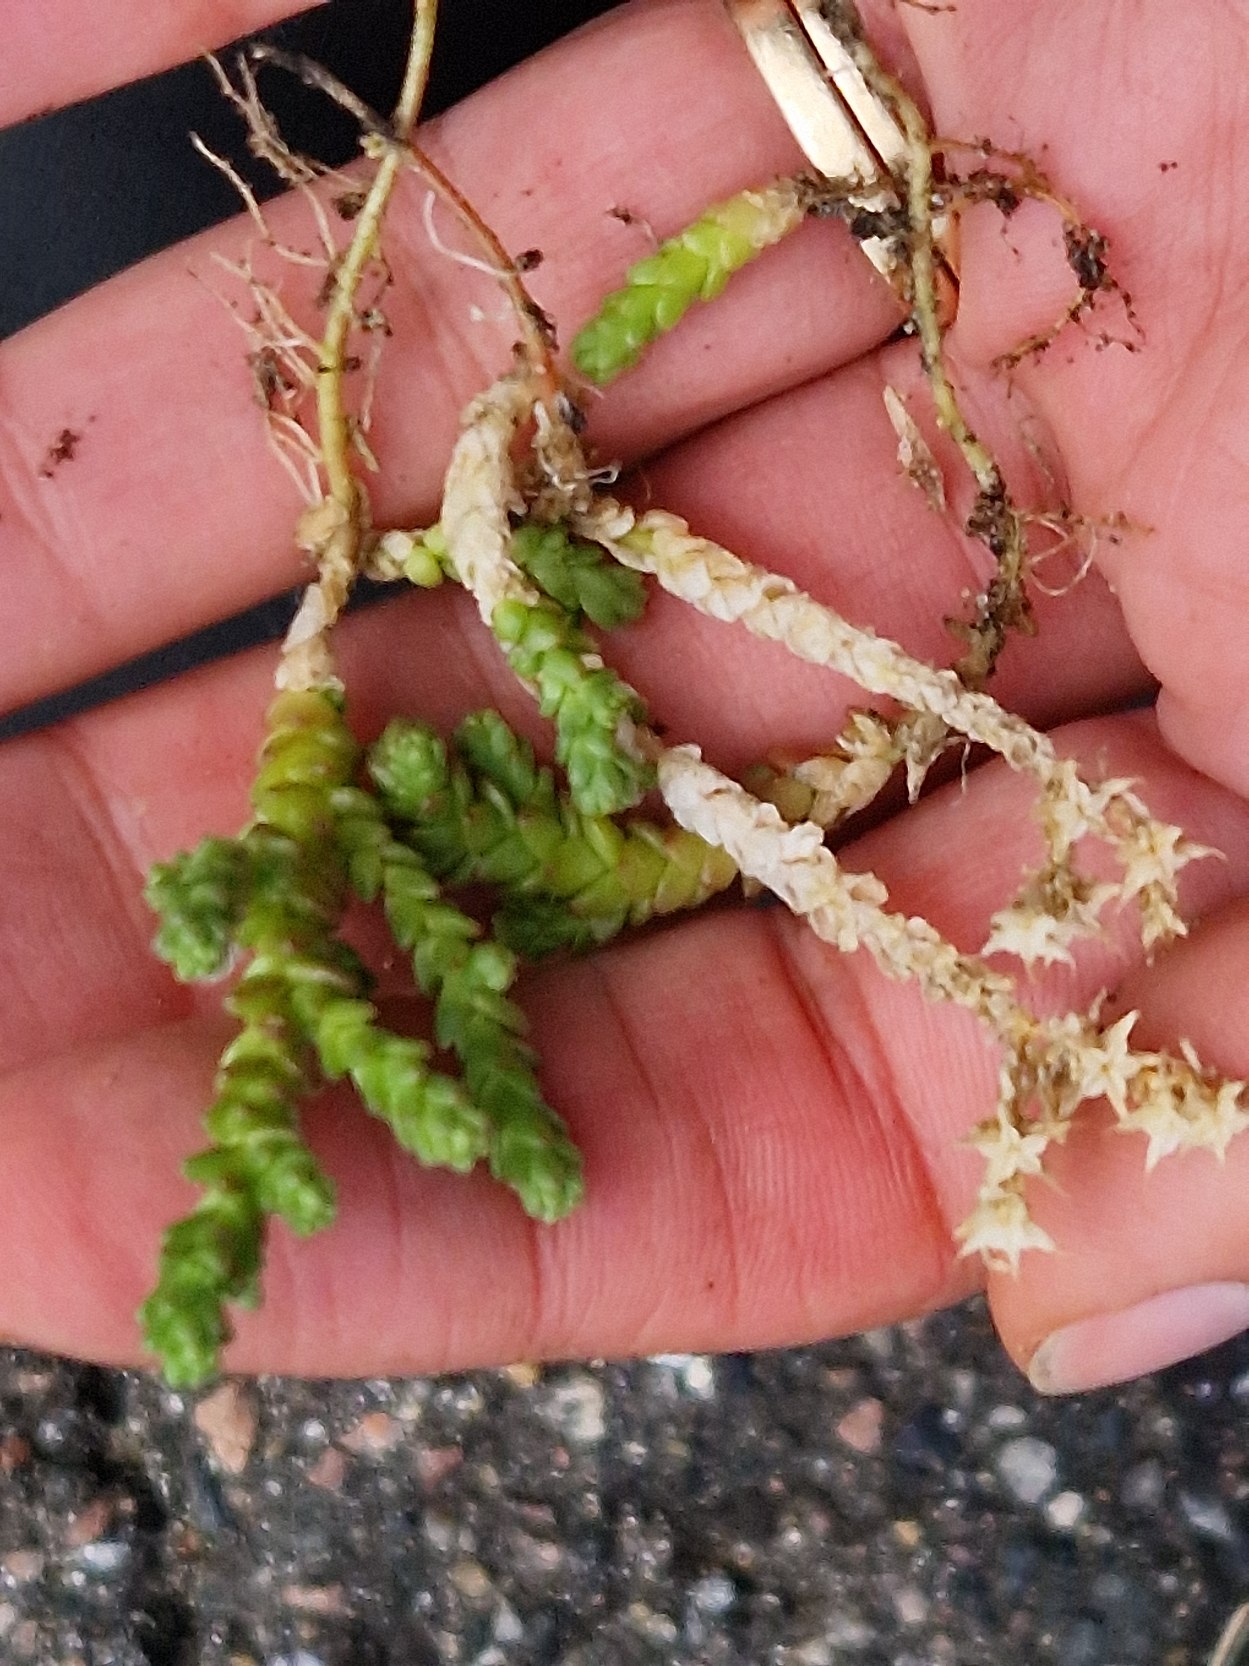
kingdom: Plantae
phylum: Tracheophyta
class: Magnoliopsida
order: Saxifragales
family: Crassulaceae
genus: Sedum
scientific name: Sedum acre
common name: Bidende stenurt
